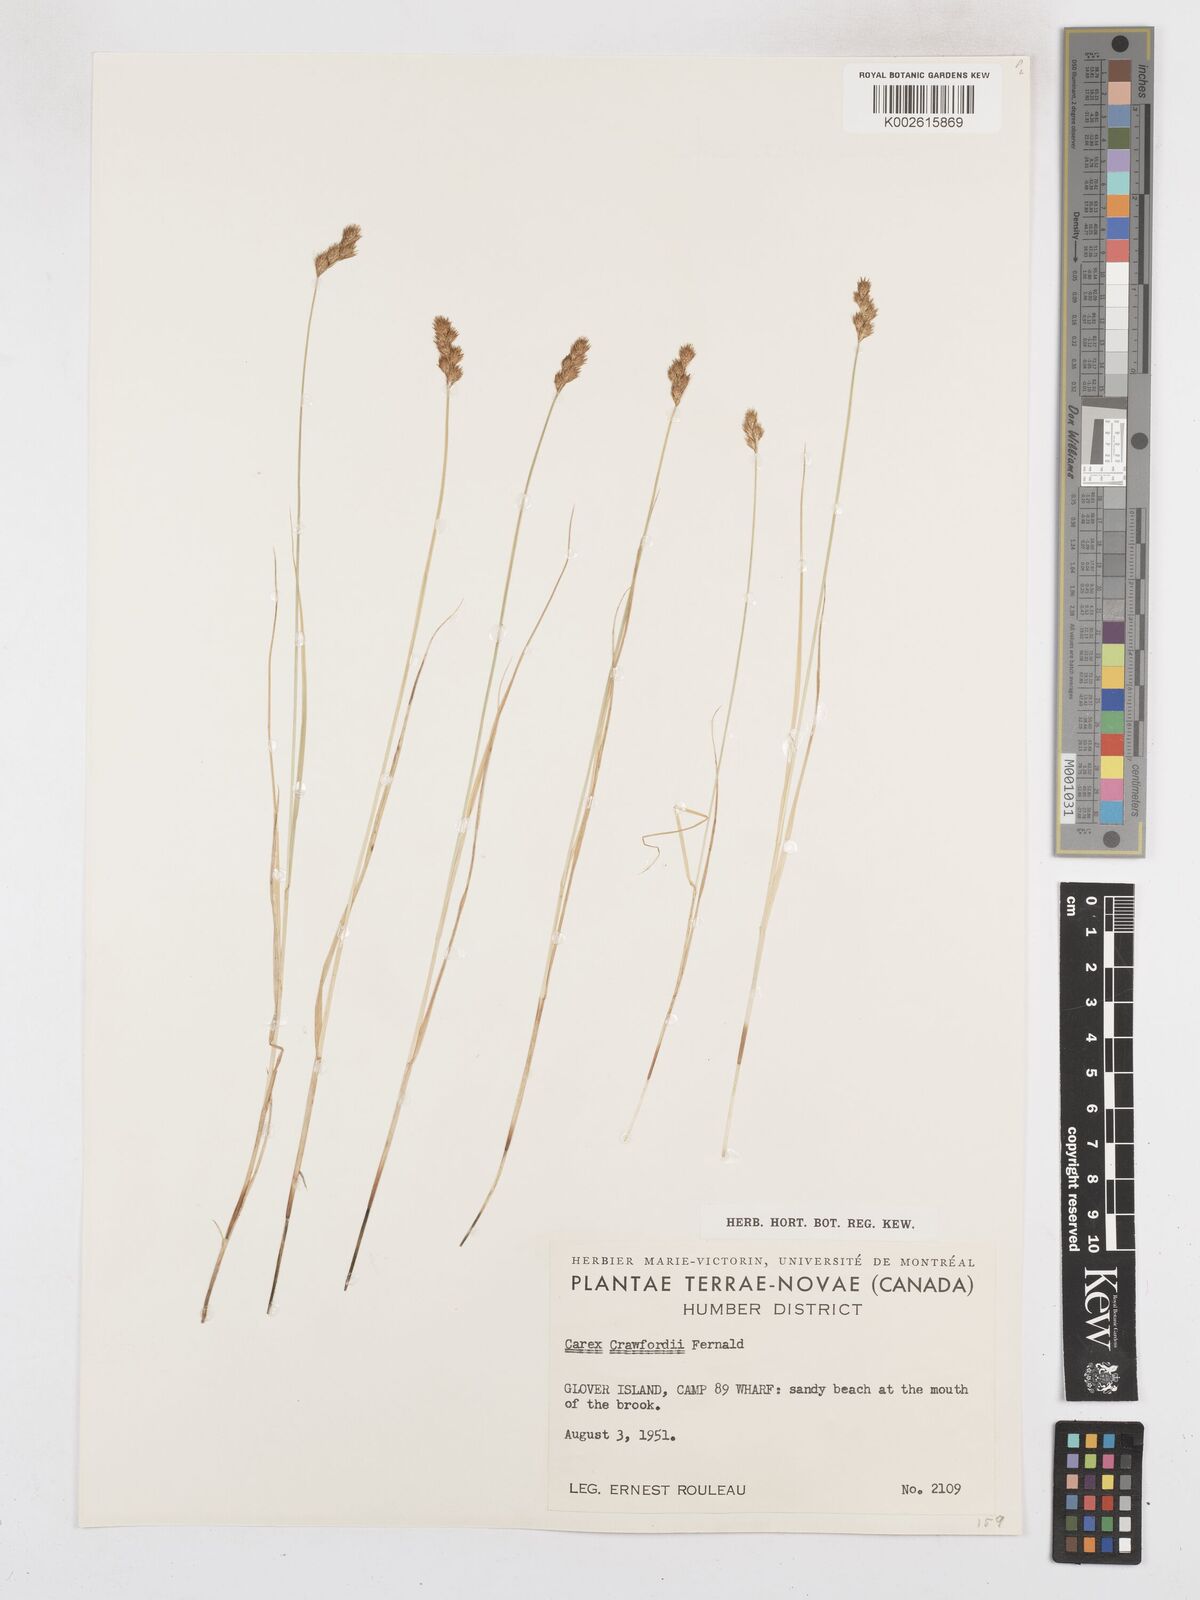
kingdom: Plantae
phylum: Tracheophyta
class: Liliopsida
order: Poales
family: Cyperaceae
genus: Carex
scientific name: Carex crawfordii
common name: Crawford's sedge
